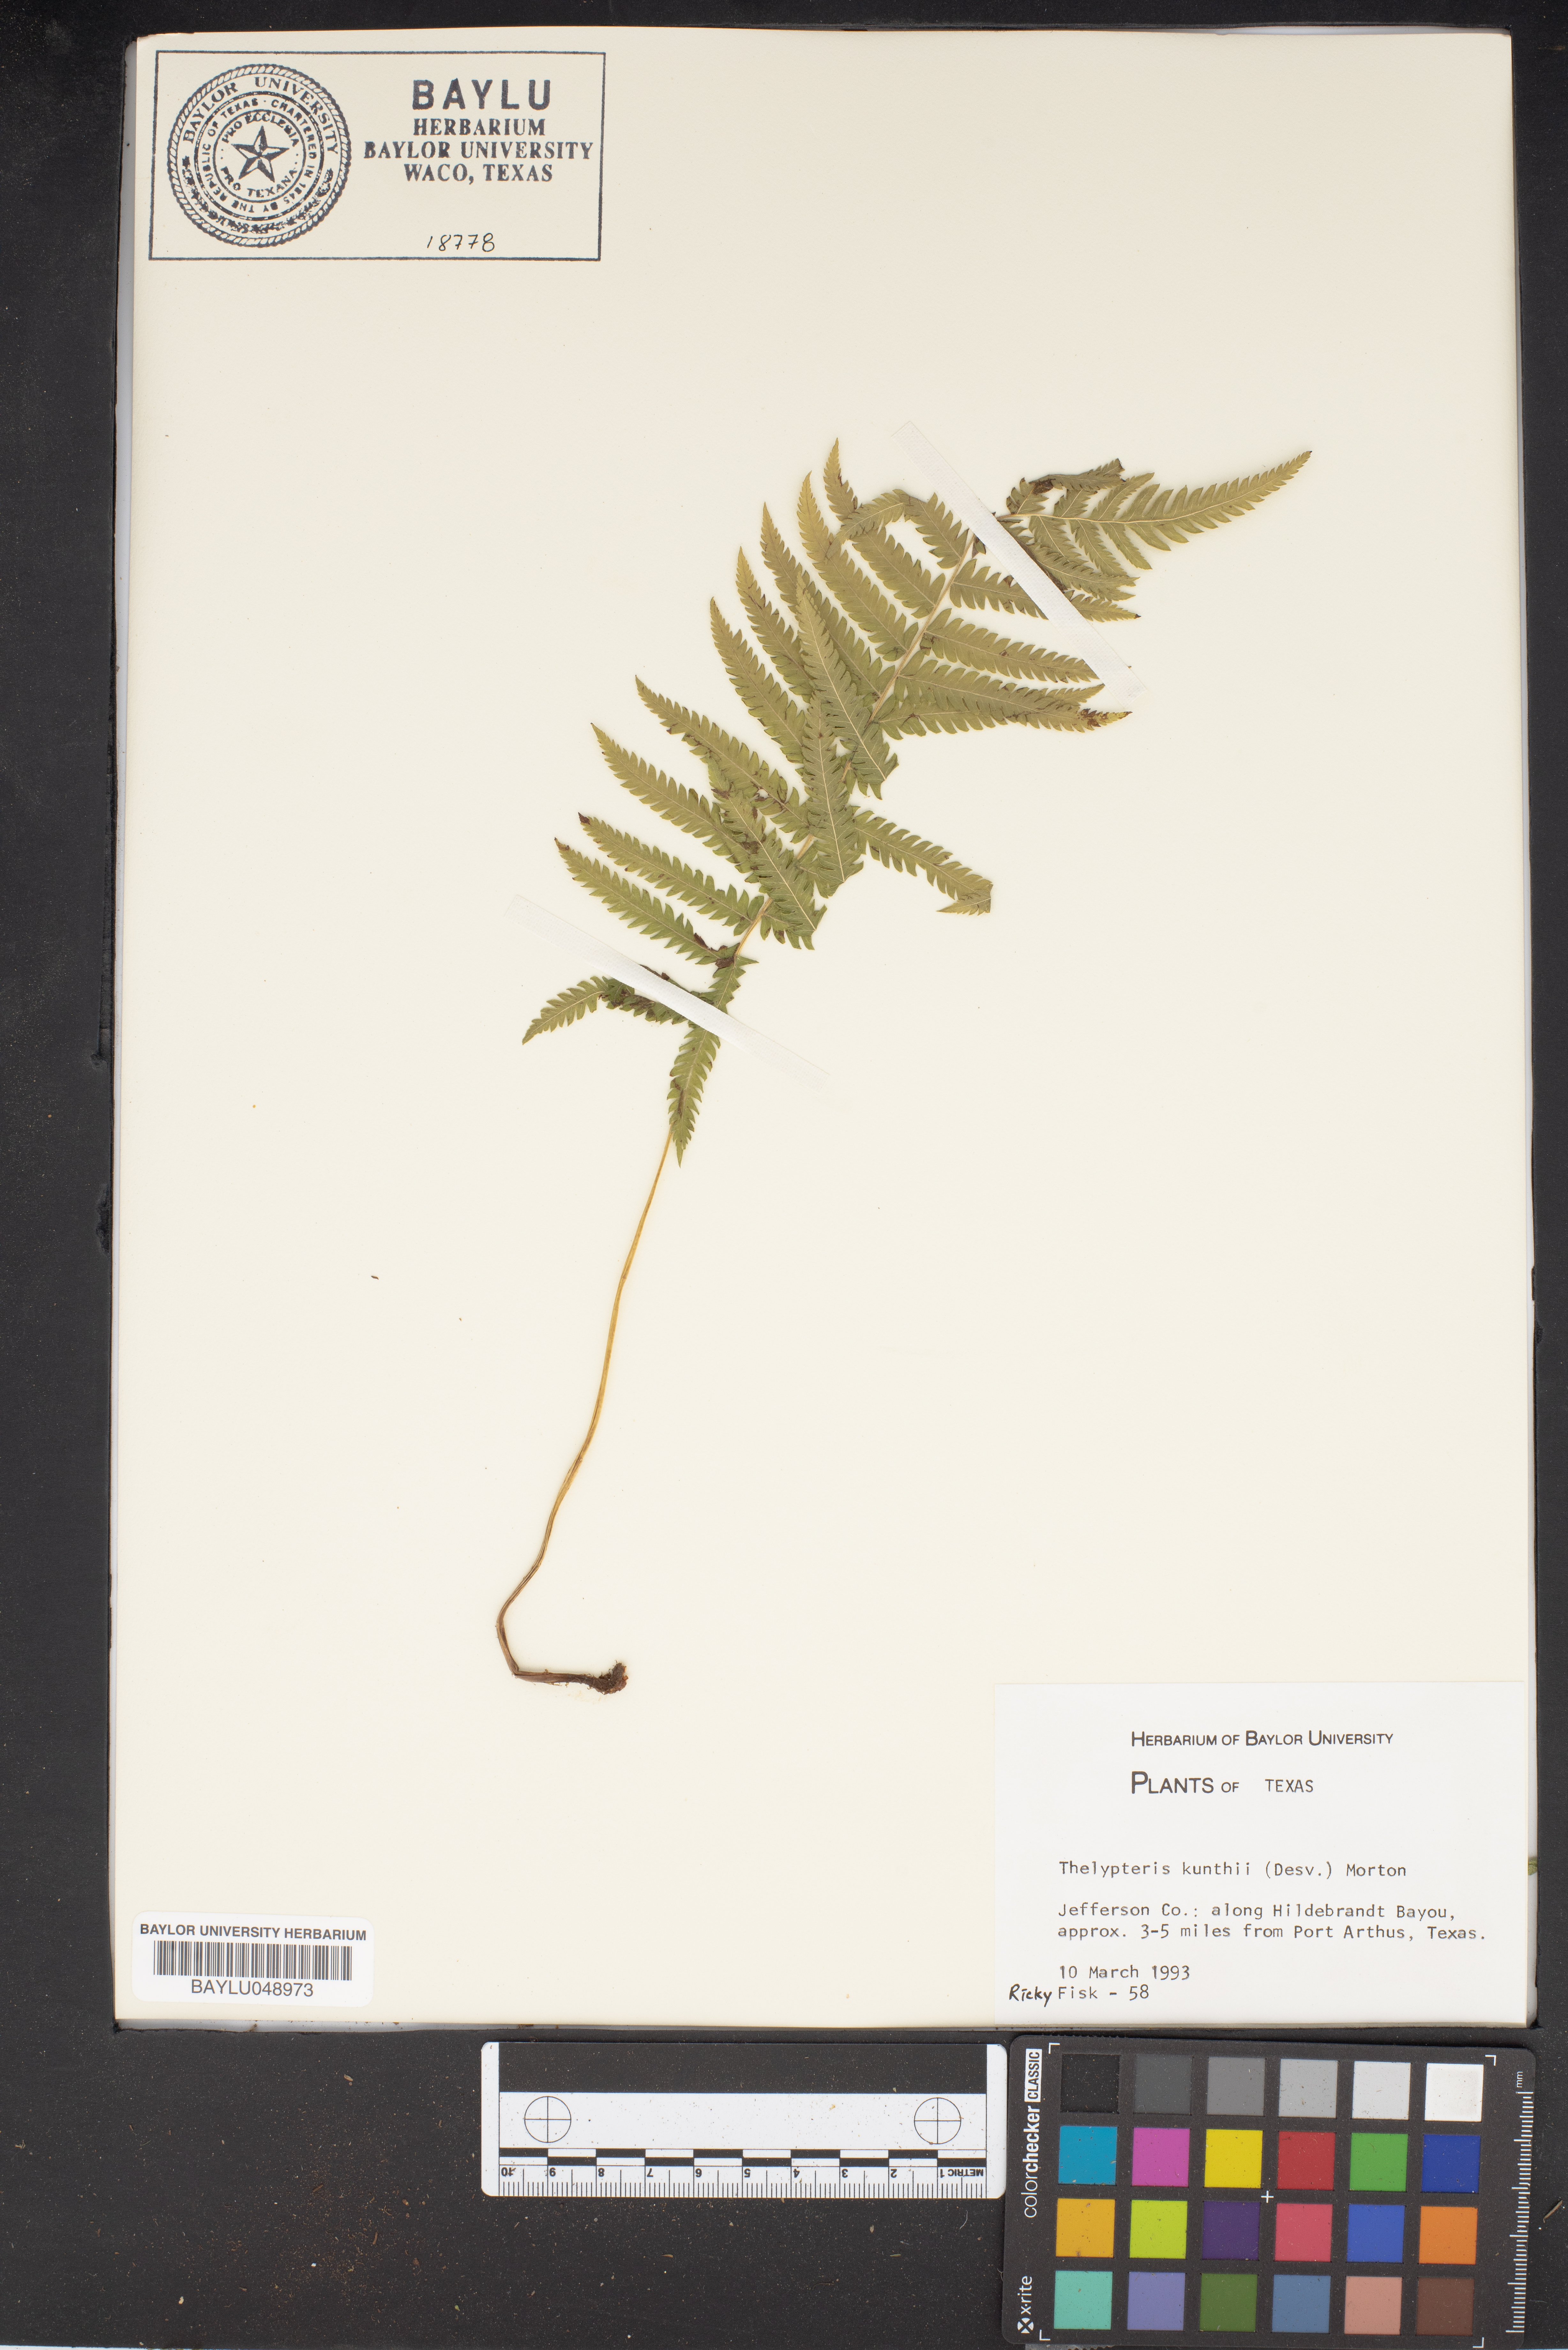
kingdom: Plantae
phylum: Tracheophyta
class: Polypodiopsida
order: Polypodiales
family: Thelypteridaceae
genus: Pelazoneuron
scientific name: Pelazoneuron kunthii
